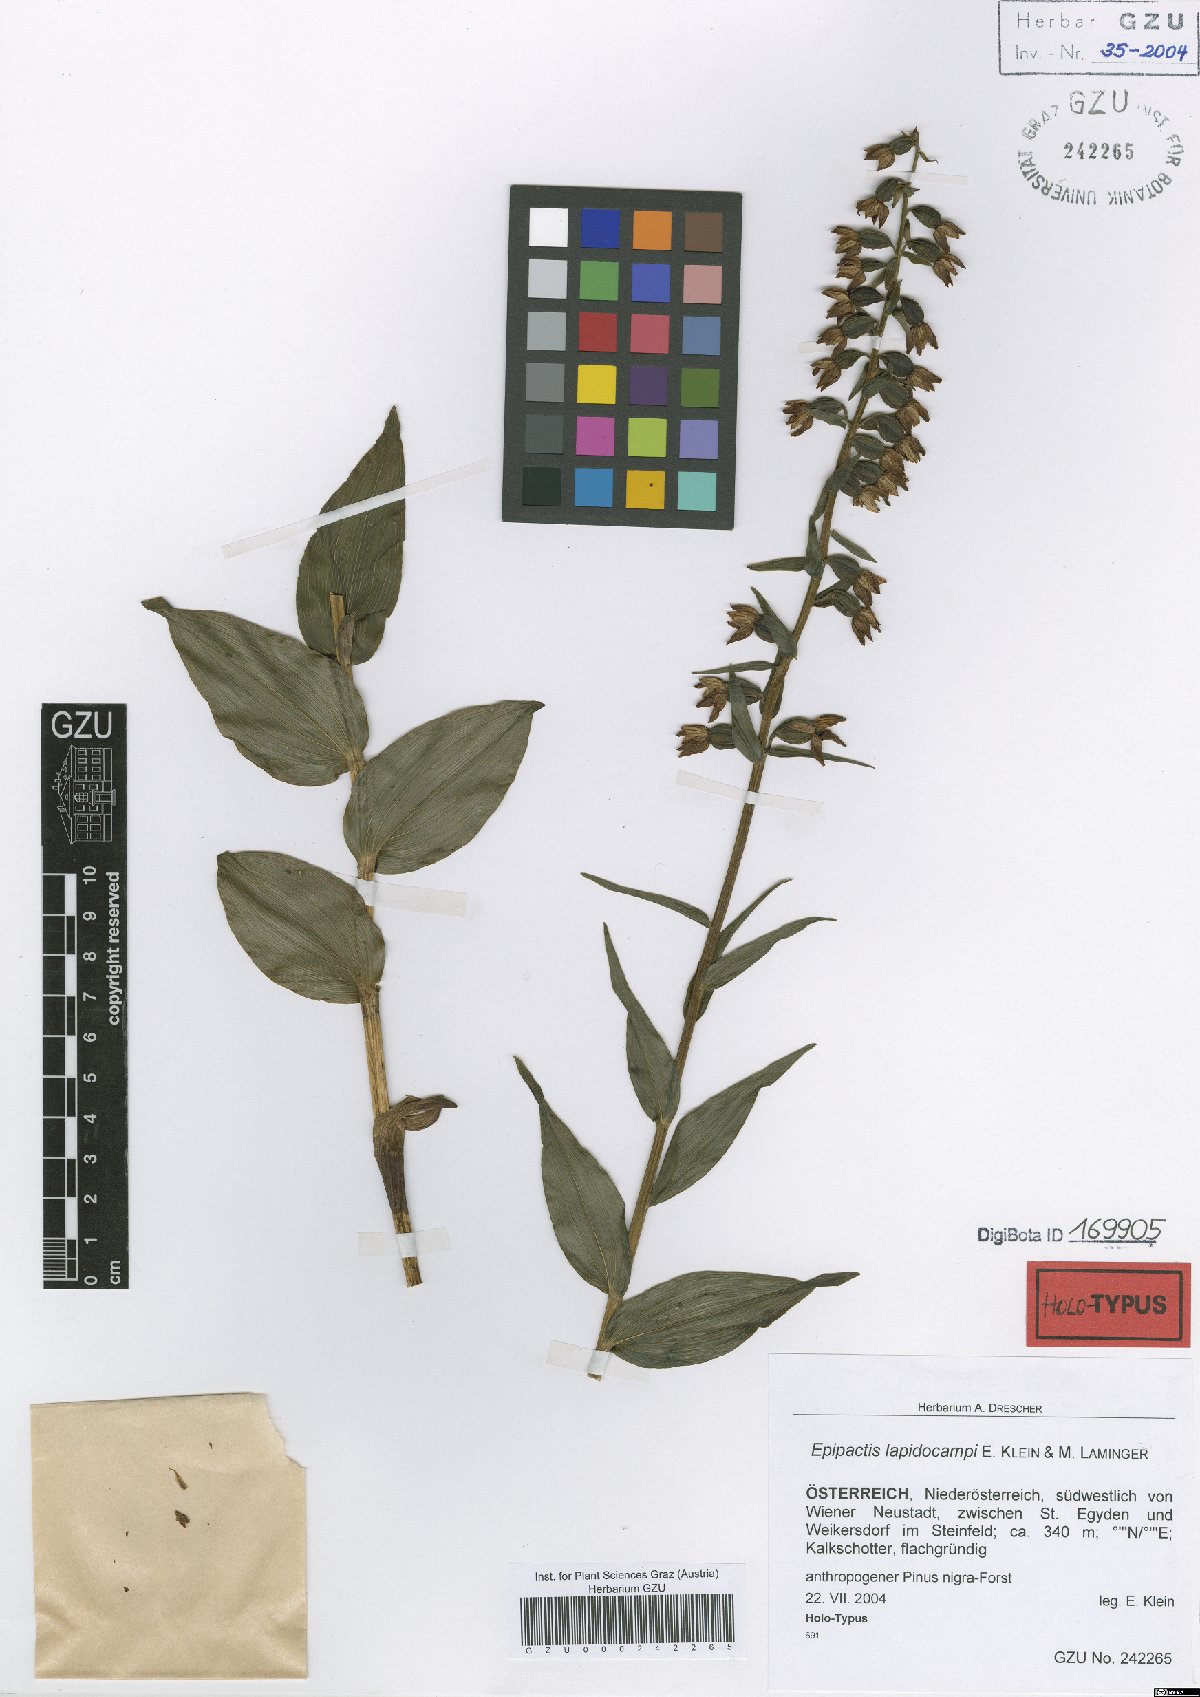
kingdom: Plantae
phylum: Tracheophyta
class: Liliopsida
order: Asparagales
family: Orchidaceae
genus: Epipactis
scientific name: Epipactis muelleri
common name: Mueller's epipactis
